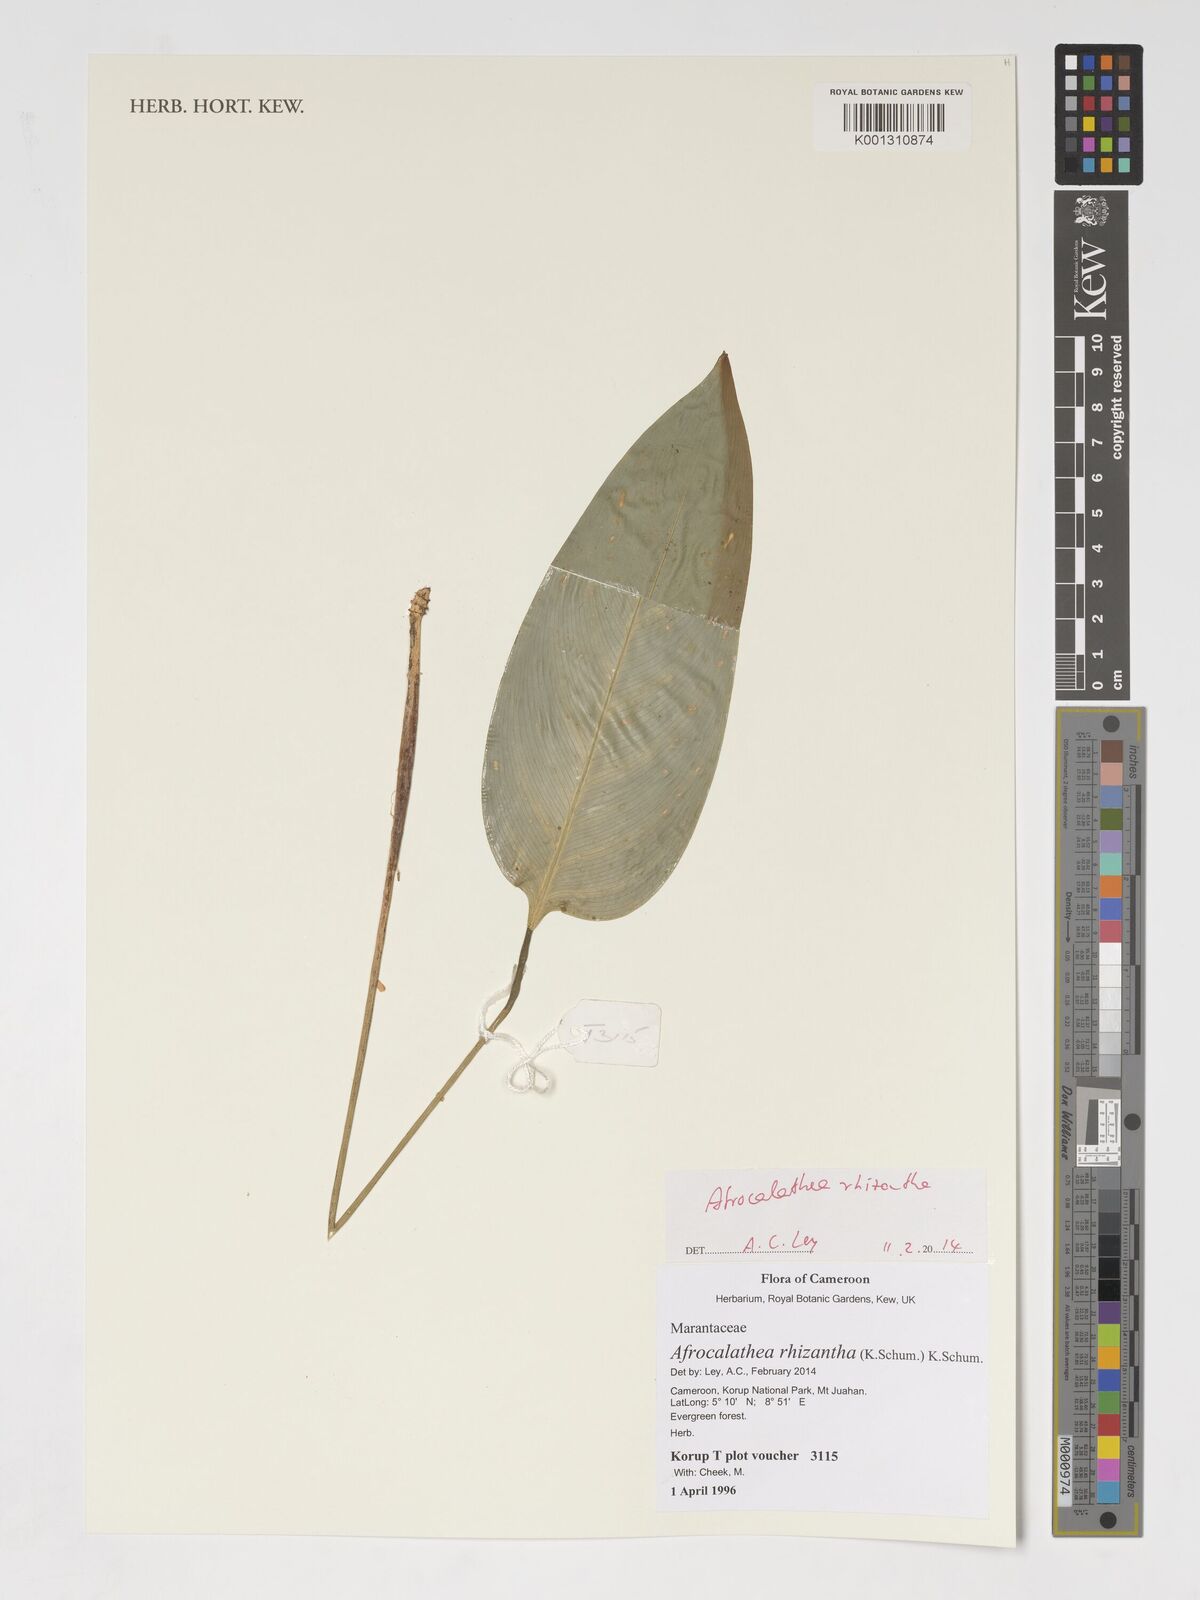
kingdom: Plantae
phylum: Tracheophyta
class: Liliopsida
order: Zingiberales
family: Marantaceae
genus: Afrocalathea
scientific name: Afrocalathea rhizantha
